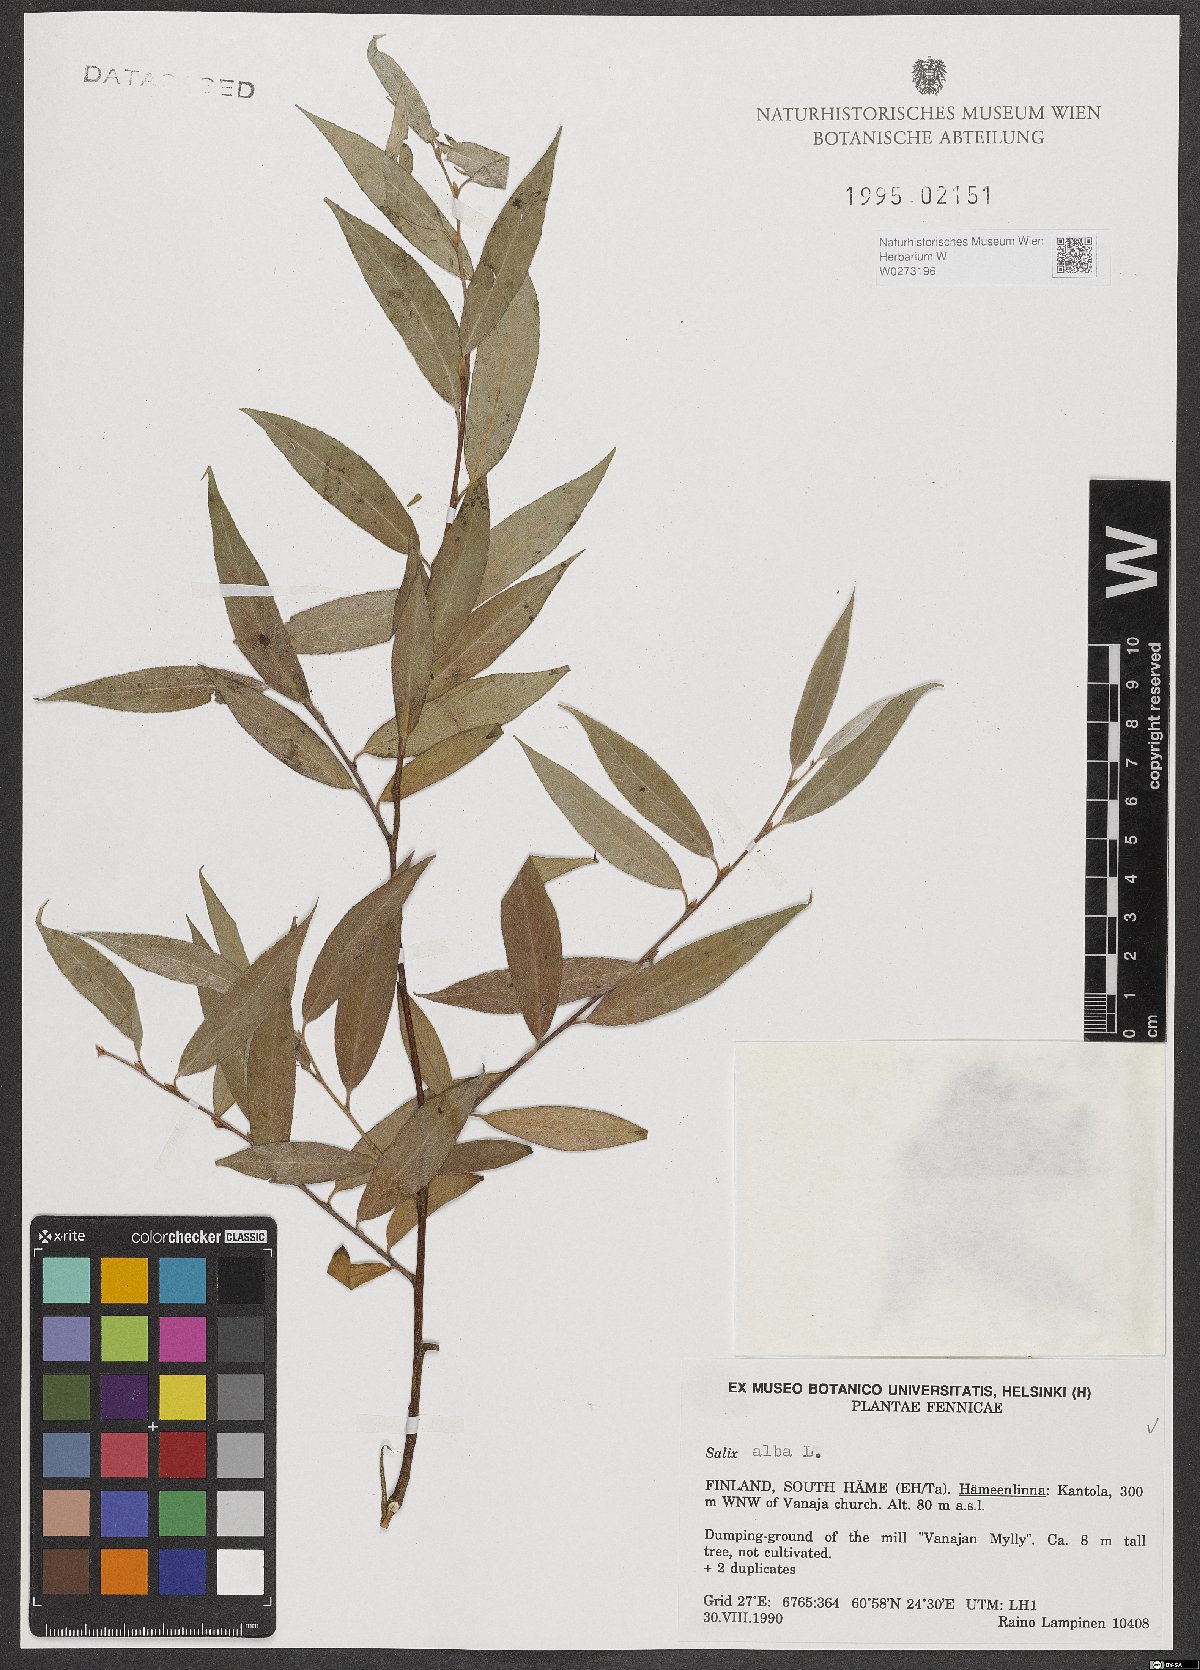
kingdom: Plantae
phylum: Tracheophyta
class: Magnoliopsida
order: Malpighiales
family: Salicaceae
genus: Salix
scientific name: Salix alba
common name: White willow
